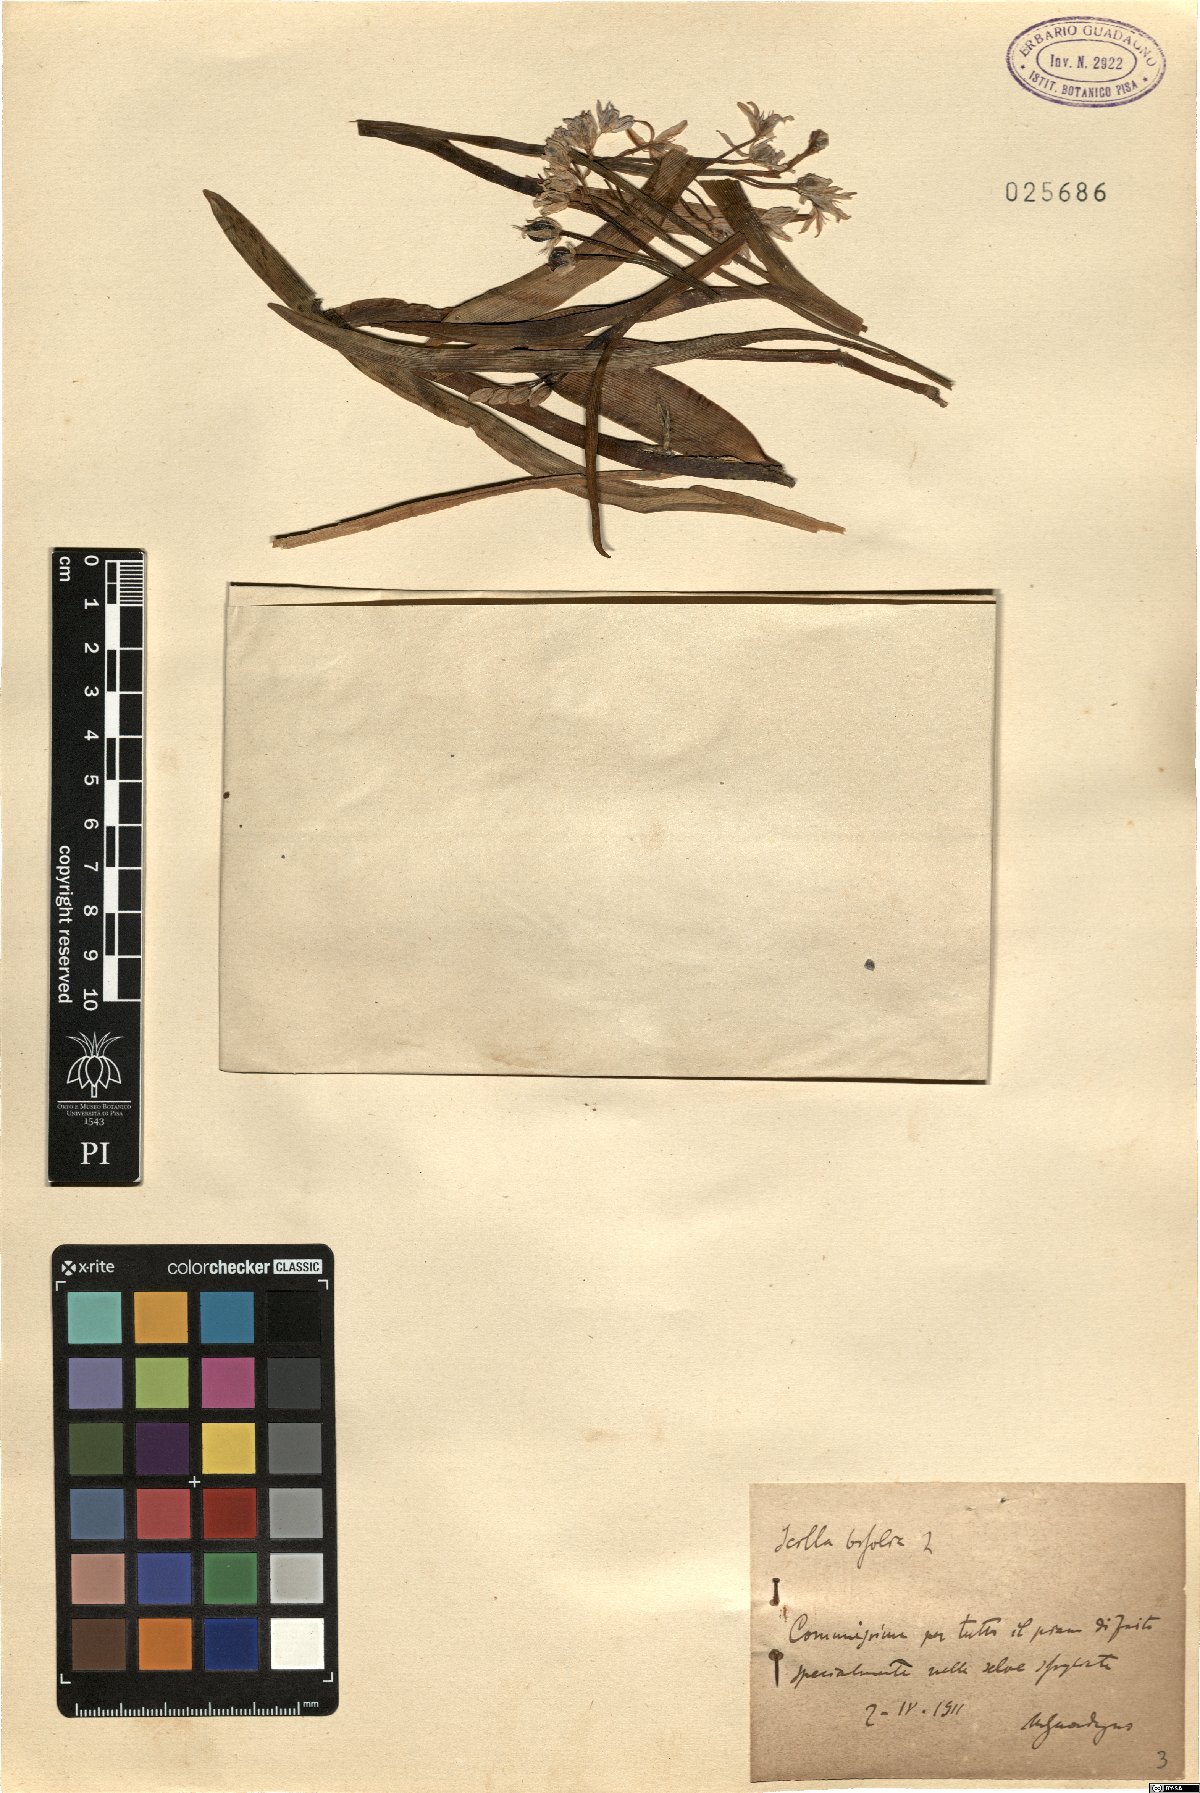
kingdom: Plantae
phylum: Tracheophyta
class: Liliopsida
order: Asparagales
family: Asparagaceae
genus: Scilla
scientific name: Scilla bifolia
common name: Alpine squill
